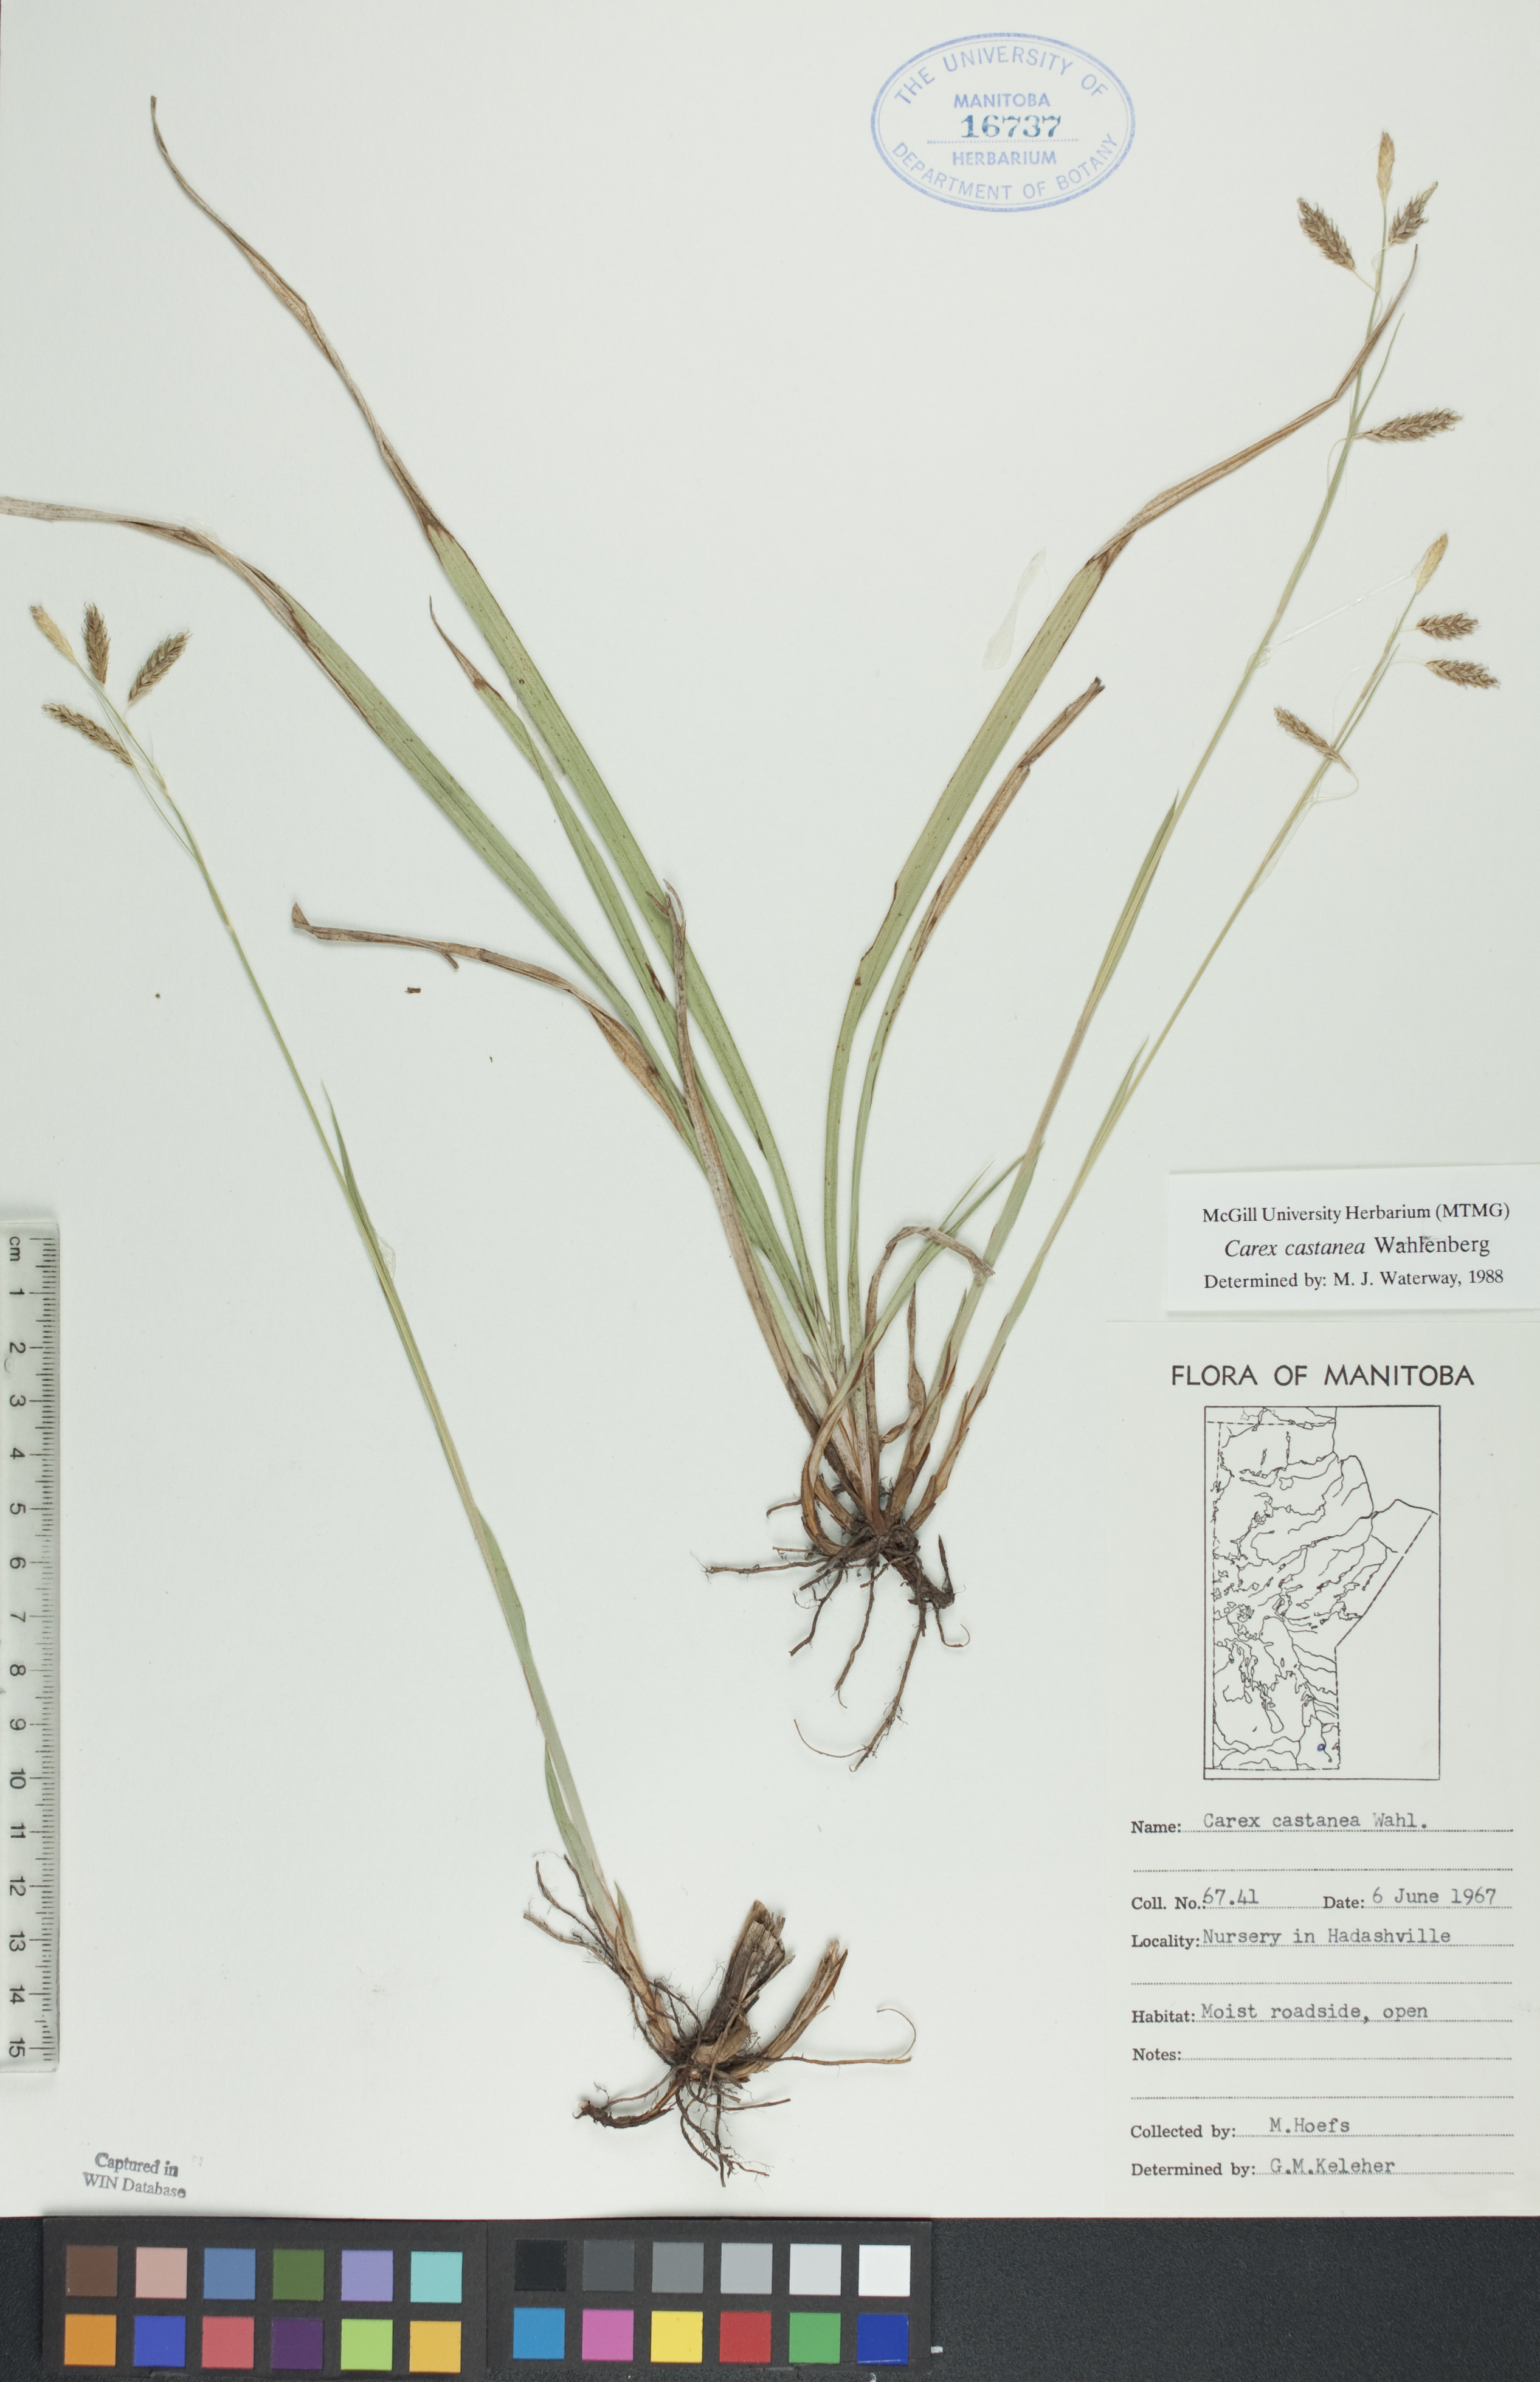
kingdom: Plantae
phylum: Tracheophyta
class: Liliopsida
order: Poales
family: Cyperaceae
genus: Carex
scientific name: Carex castanea
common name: Chestnut sedge
